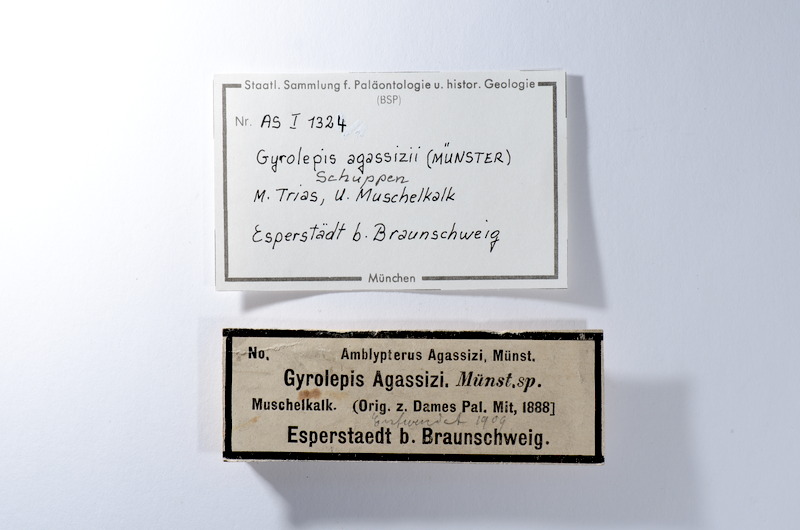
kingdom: Animalia
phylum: Chordata
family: Amblypteridae
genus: Amblypterus
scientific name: Amblypterus agassizii
